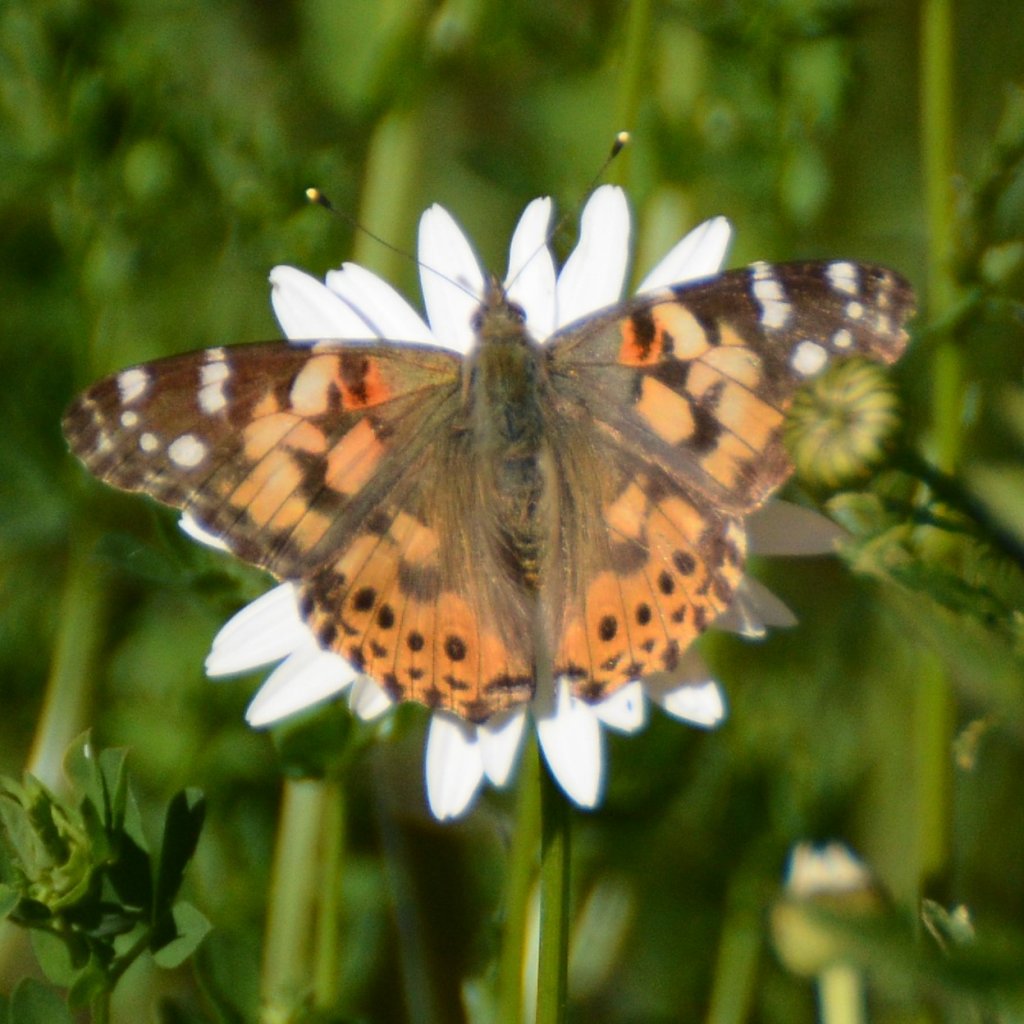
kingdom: Animalia
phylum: Arthropoda
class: Insecta
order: Lepidoptera
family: Nymphalidae
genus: Vanessa
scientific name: Vanessa cardui
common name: Painted Lady
